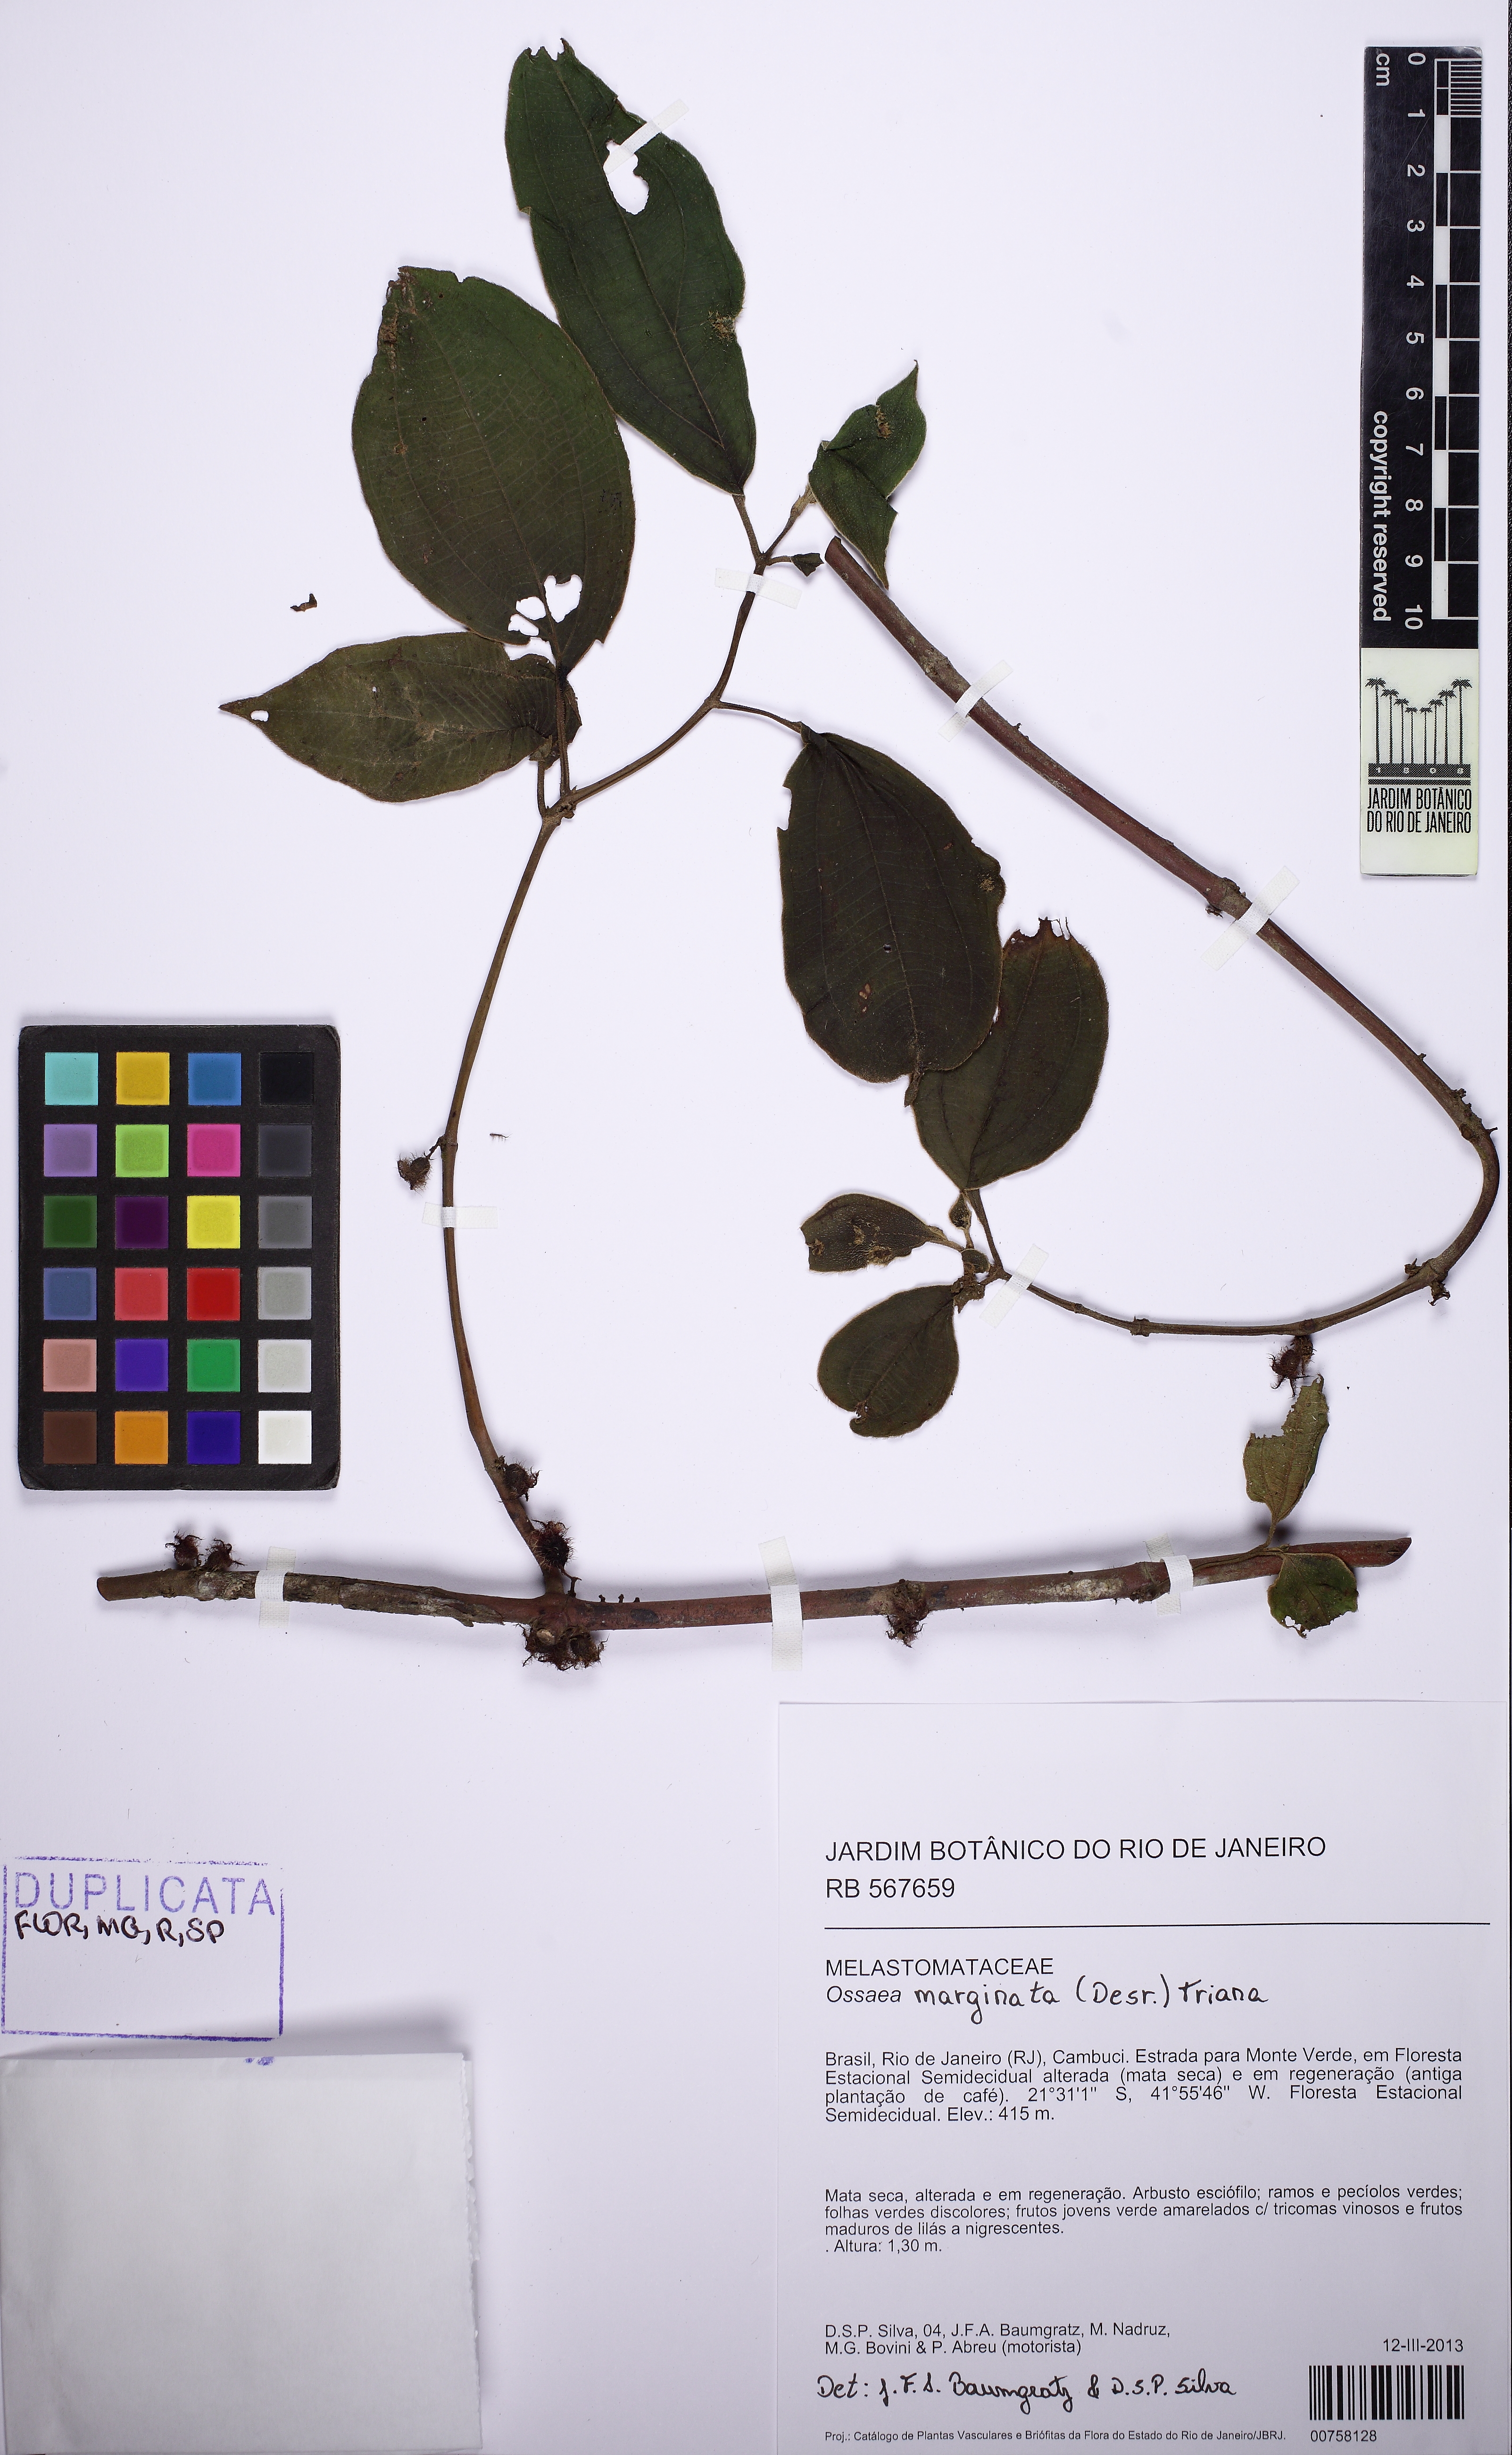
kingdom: Plantae
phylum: Tracheophyta
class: Magnoliopsida
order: Myrtales
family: Melastomataceae
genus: Miconia
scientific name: Miconia leamarginata
